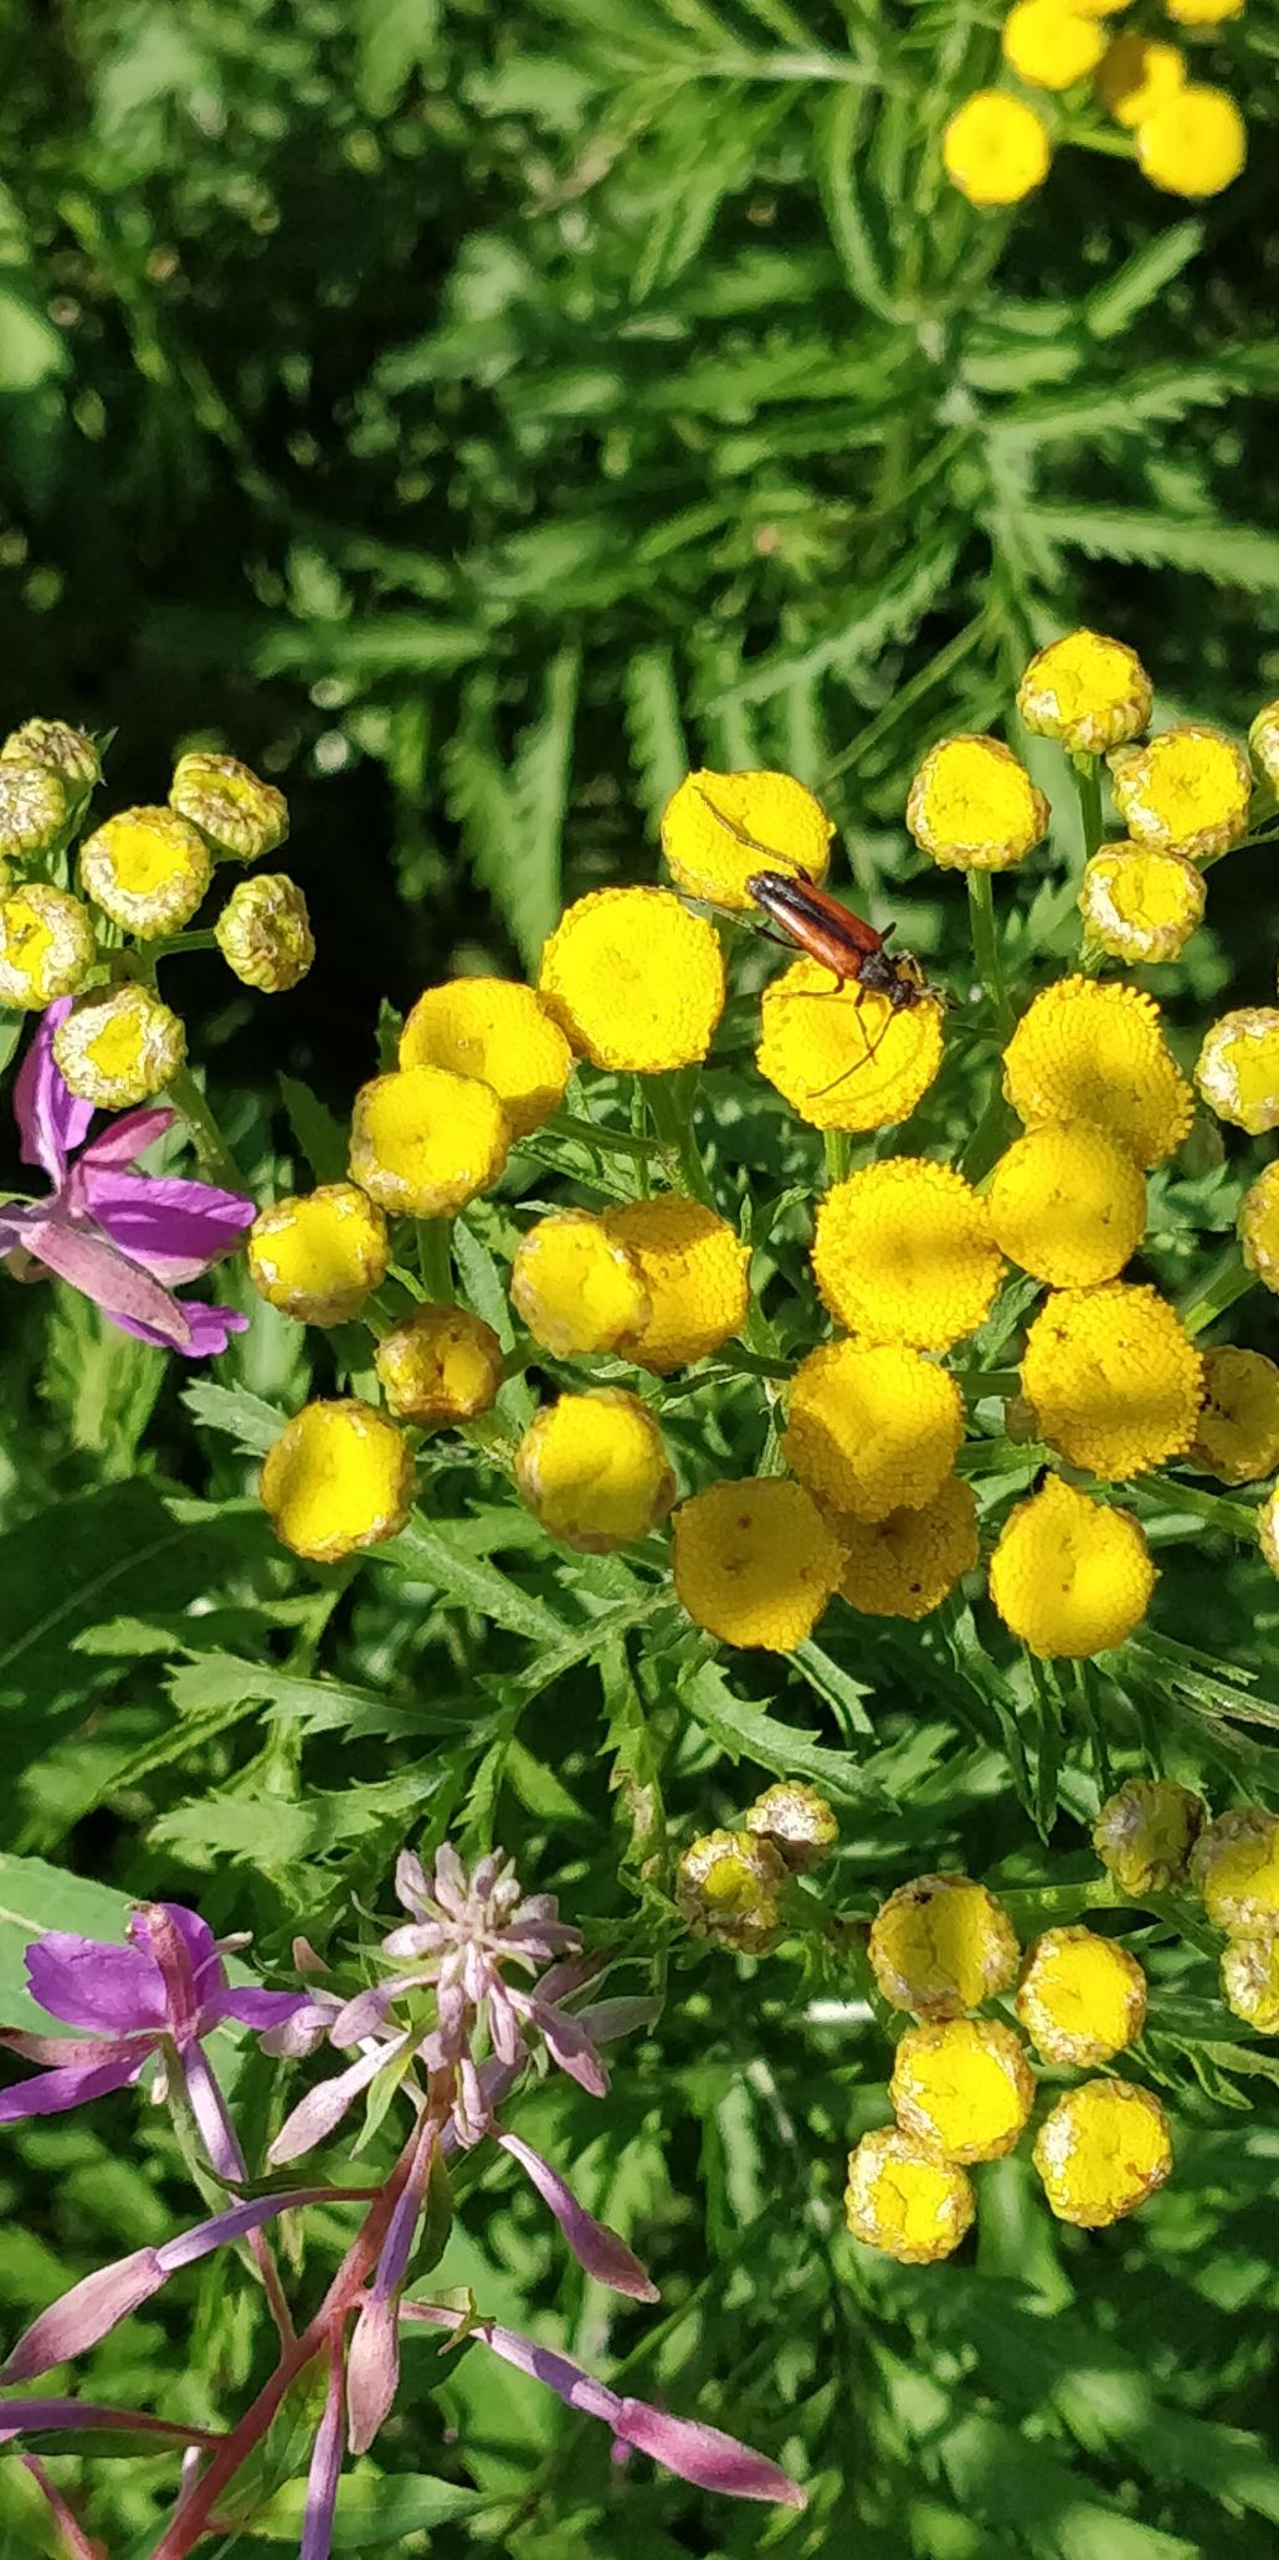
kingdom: Animalia
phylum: Arthropoda
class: Insecta
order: Coleoptera
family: Cerambycidae
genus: Stenurella
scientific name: Stenurella melanura
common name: Sortsømmet blomsterbuk
